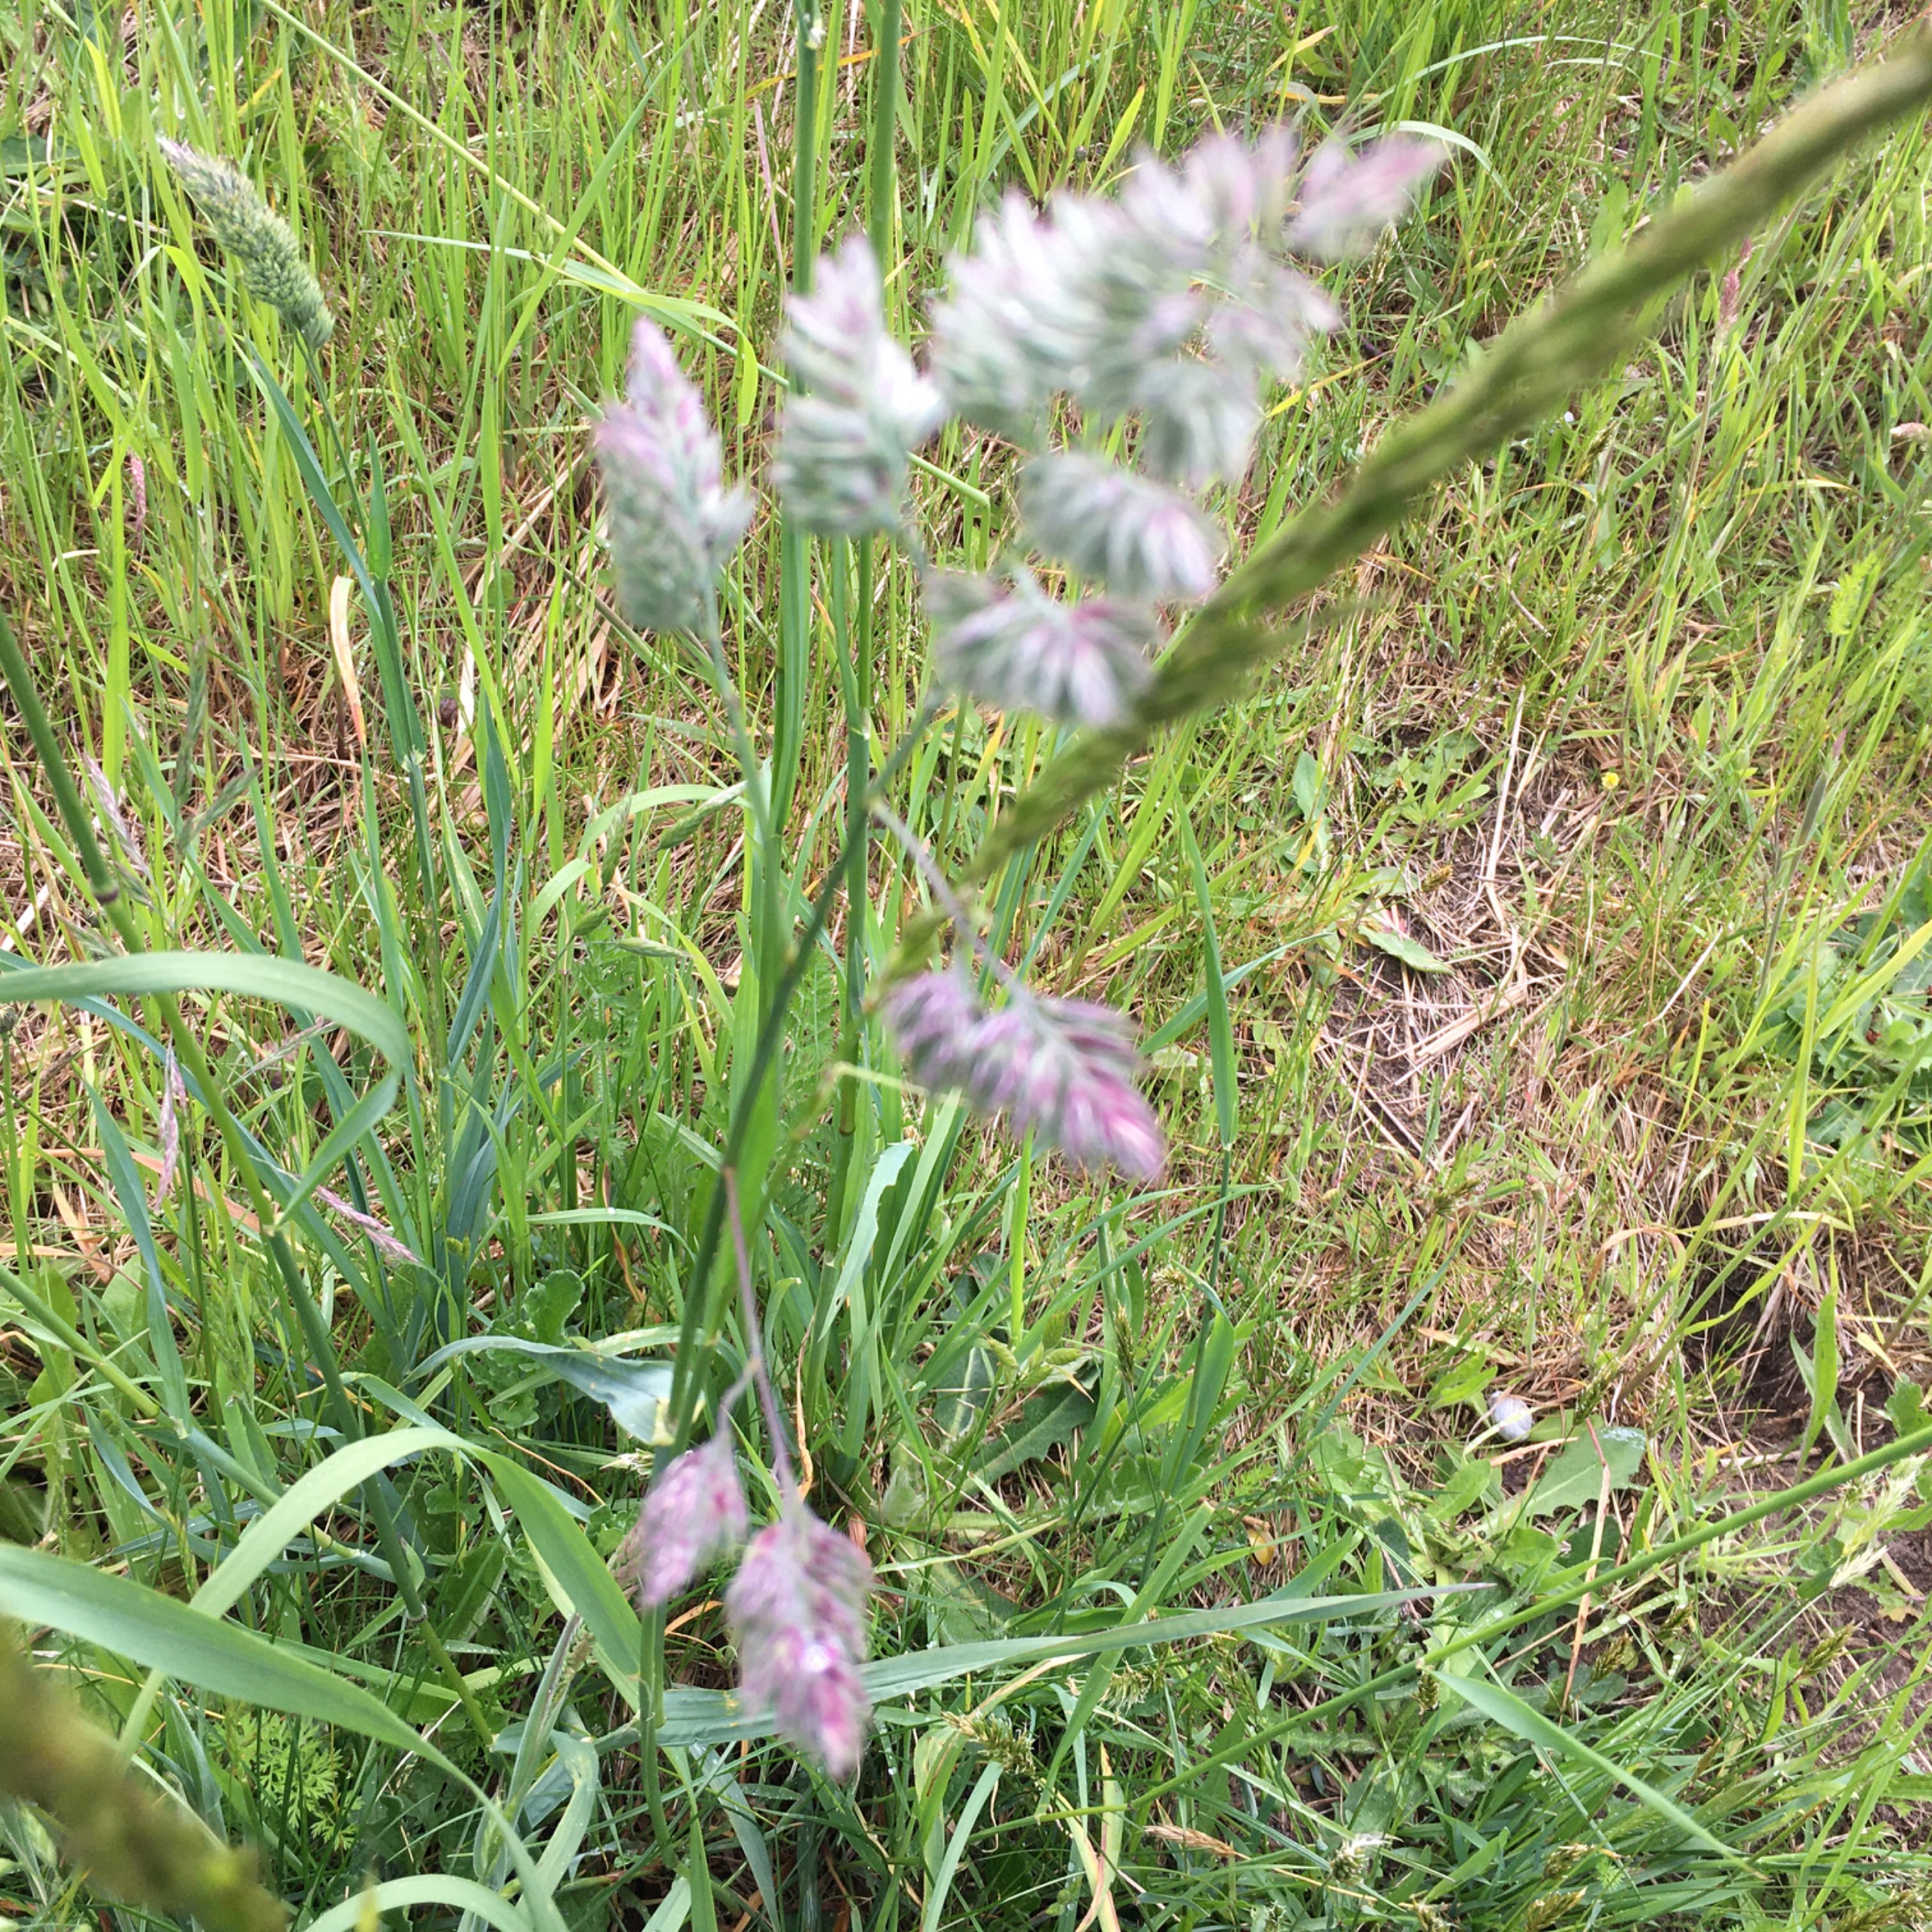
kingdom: Plantae
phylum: Tracheophyta
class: Liliopsida
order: Poales
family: Poaceae
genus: Dactylis
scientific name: Dactylis glomerata
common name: Almindelig hundegræs
